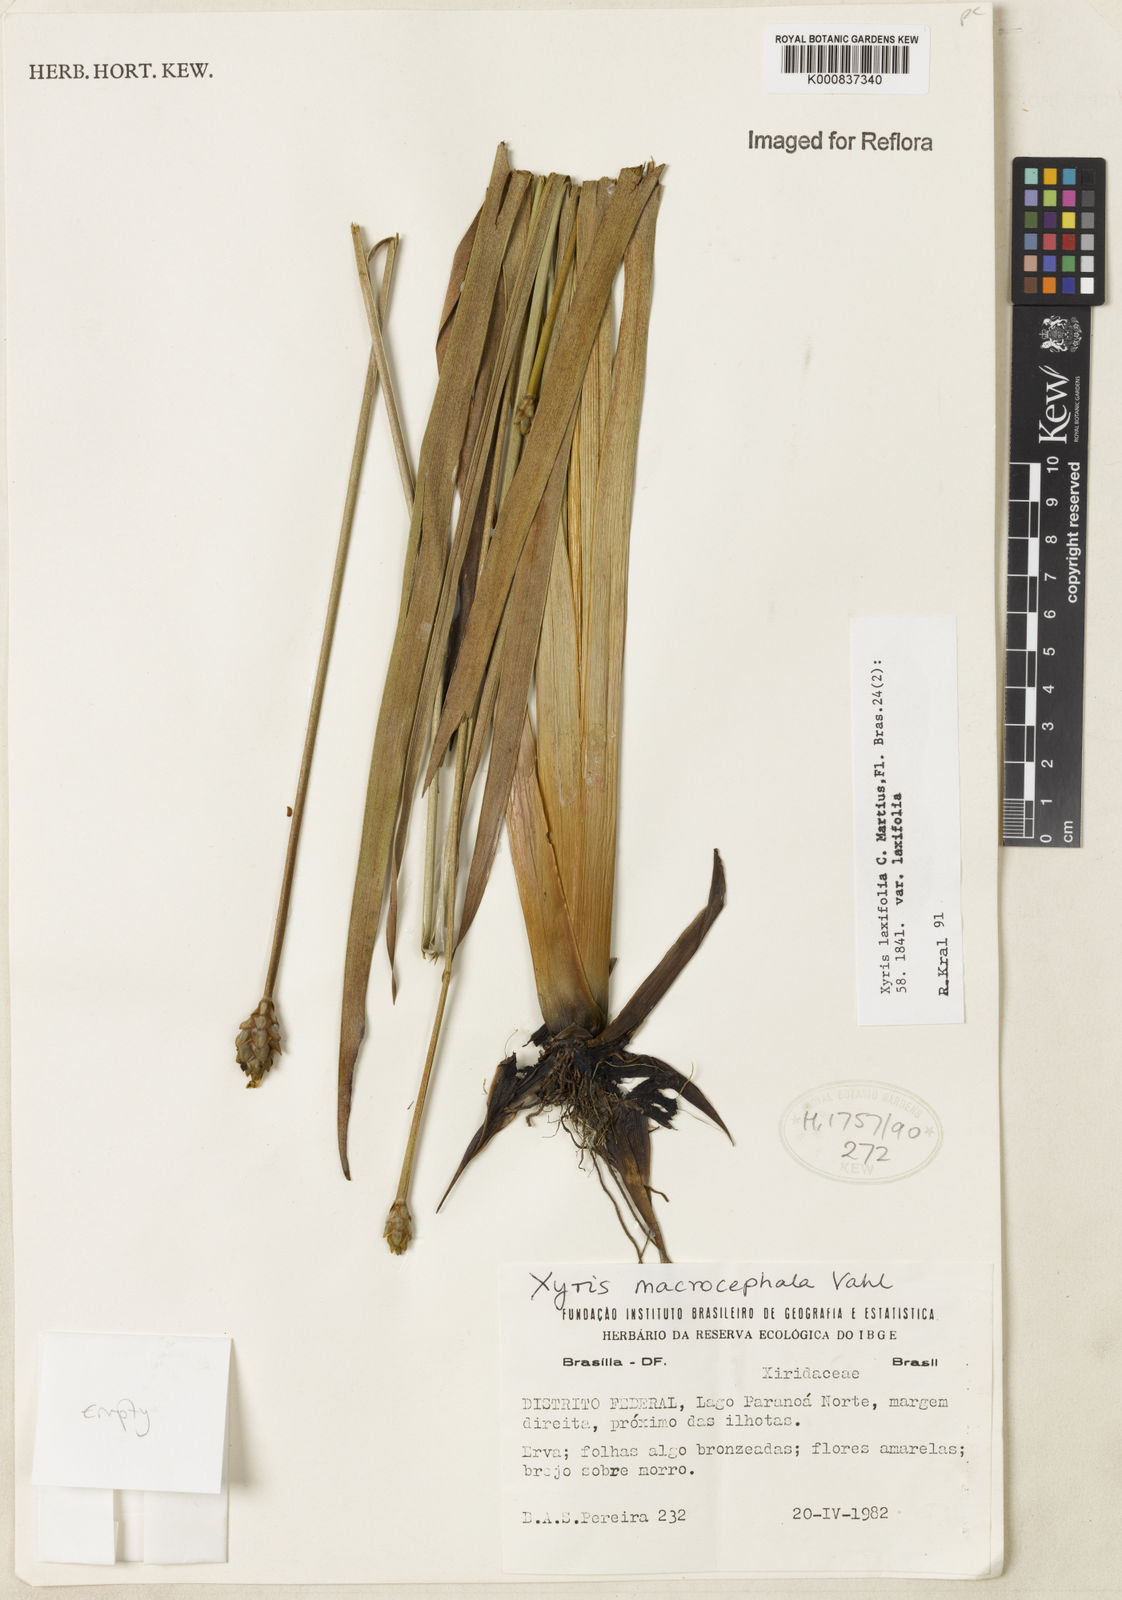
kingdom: Plantae
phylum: Tracheophyta
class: Liliopsida
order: Poales
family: Xyridaceae
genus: Xyris
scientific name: Xyris laxifolia
